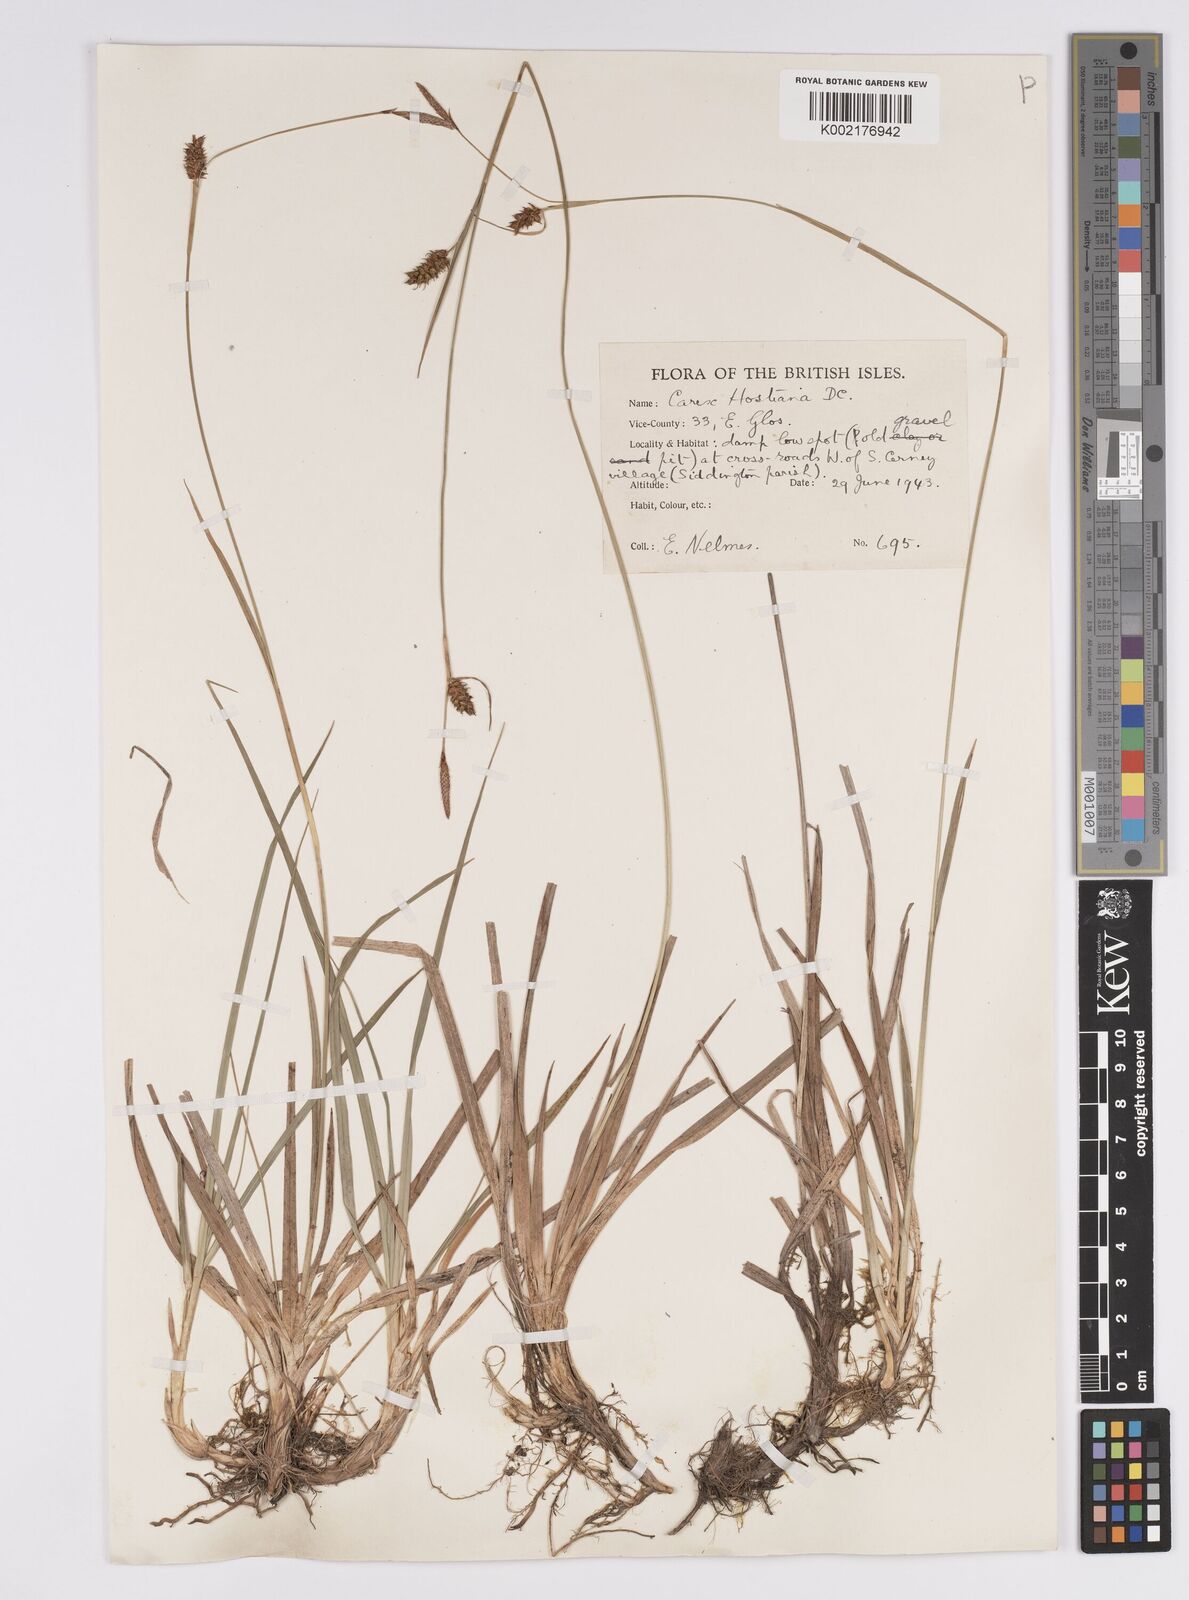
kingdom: Plantae
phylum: Tracheophyta
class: Liliopsida
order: Poales
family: Cyperaceae
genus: Carex
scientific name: Carex hostiana
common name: Tawny sedge
